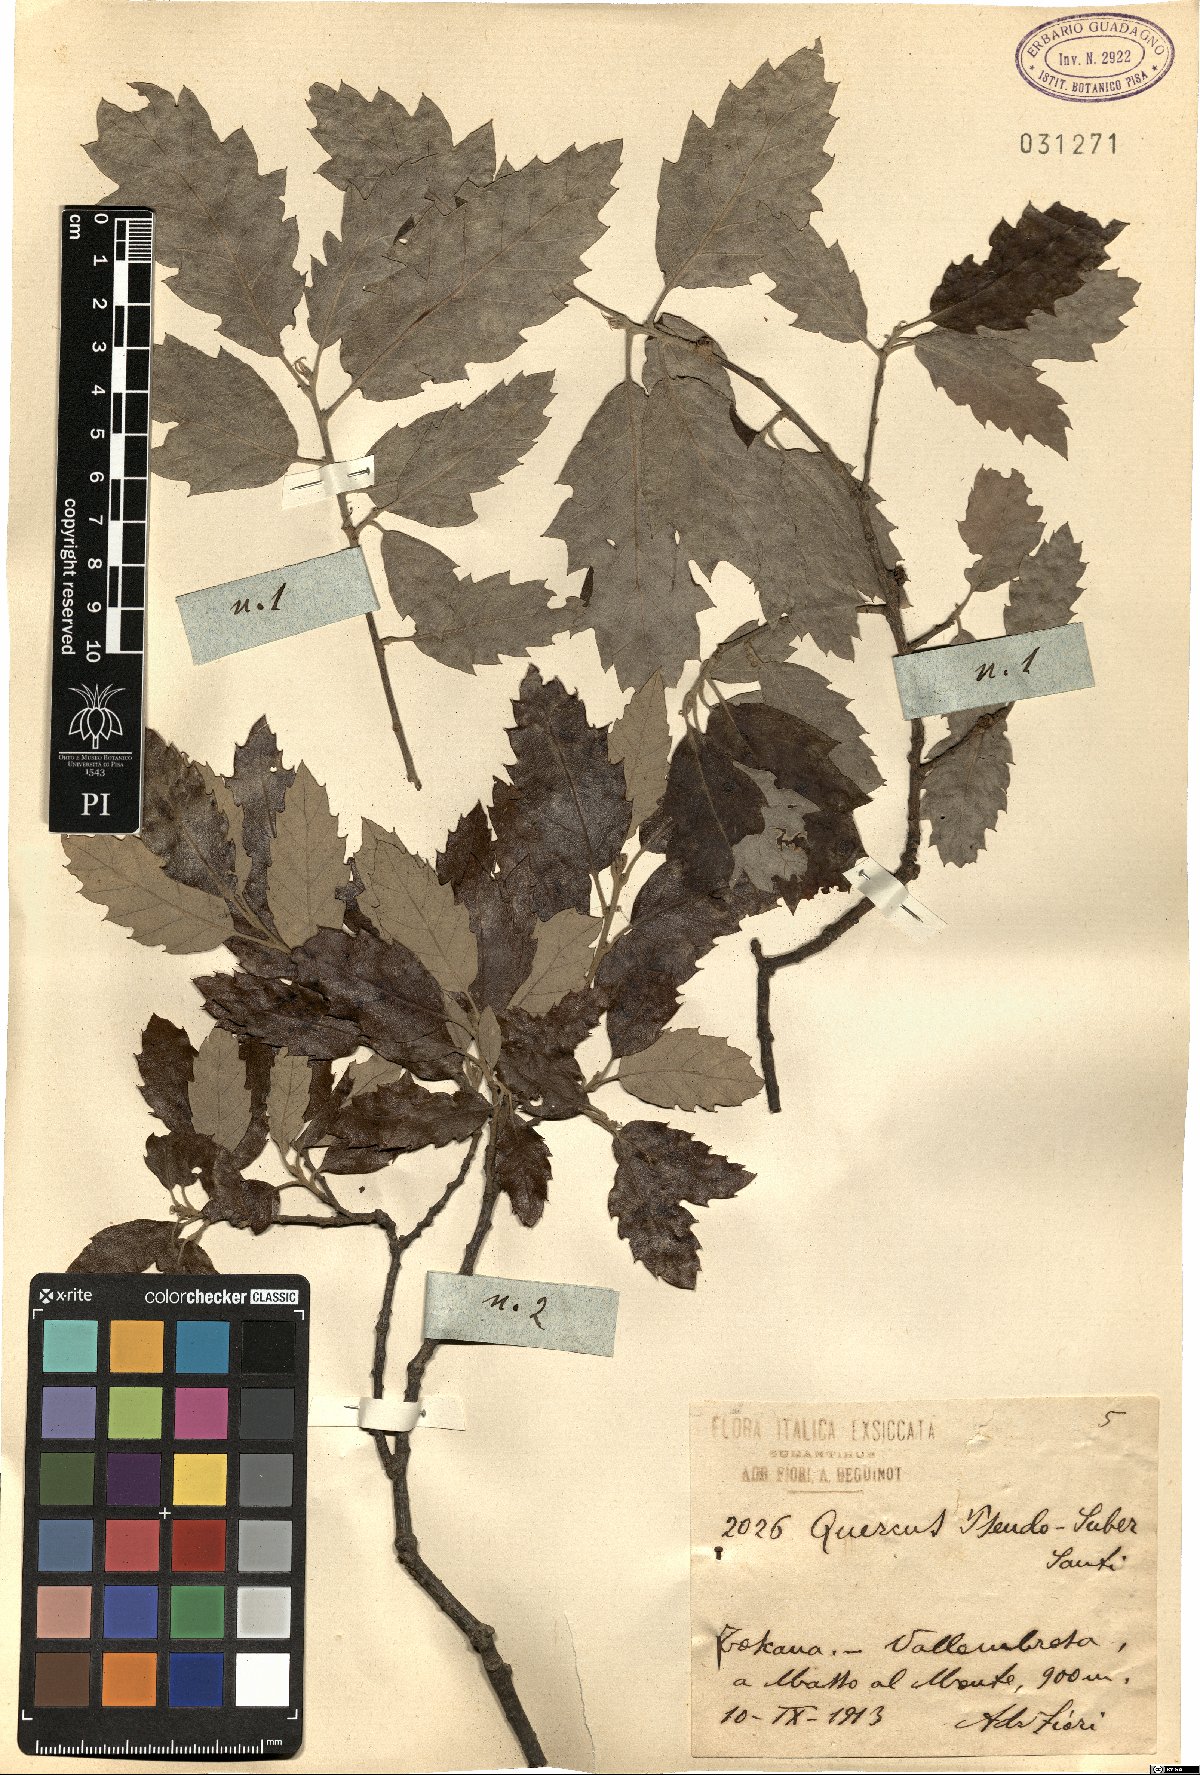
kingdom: Plantae
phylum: Tracheophyta
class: Magnoliopsida
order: Fagales
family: Fagaceae
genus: Quercus
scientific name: Quercus crenata
